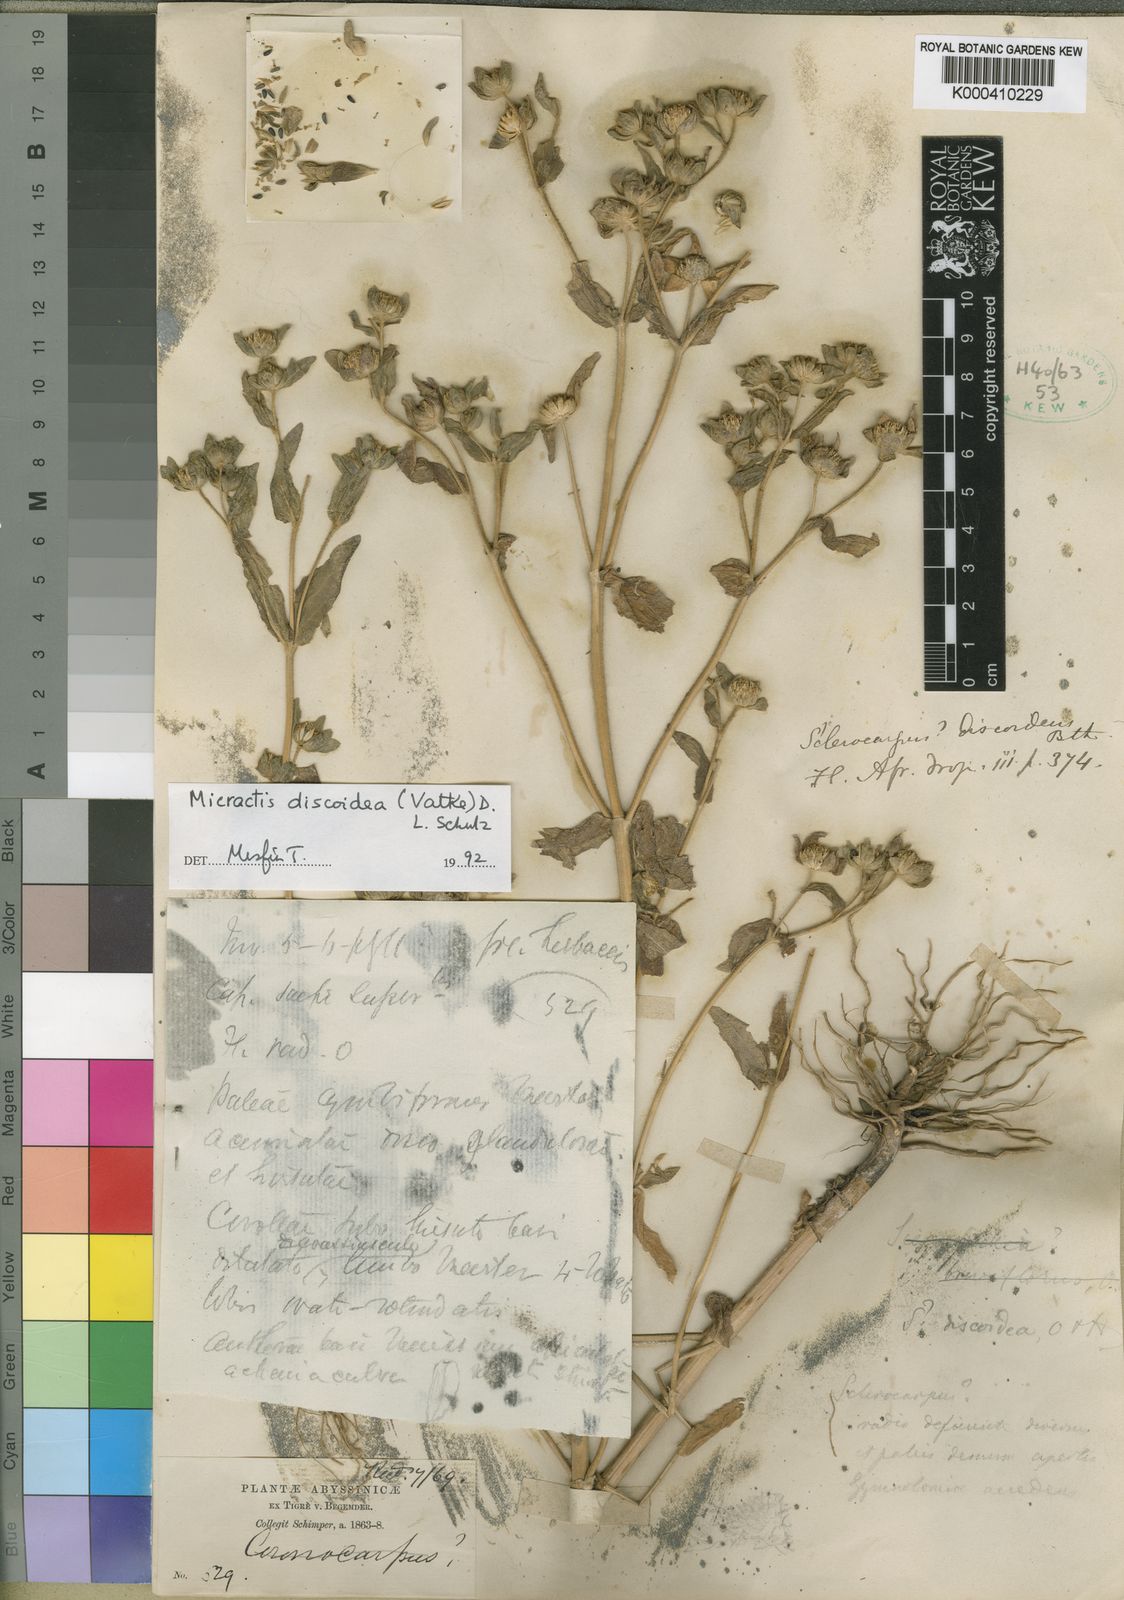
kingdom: Plantae
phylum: Tracheophyta
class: Magnoliopsida
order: Asterales
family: Asteraceae
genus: Micractis
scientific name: Micractis discoidea
